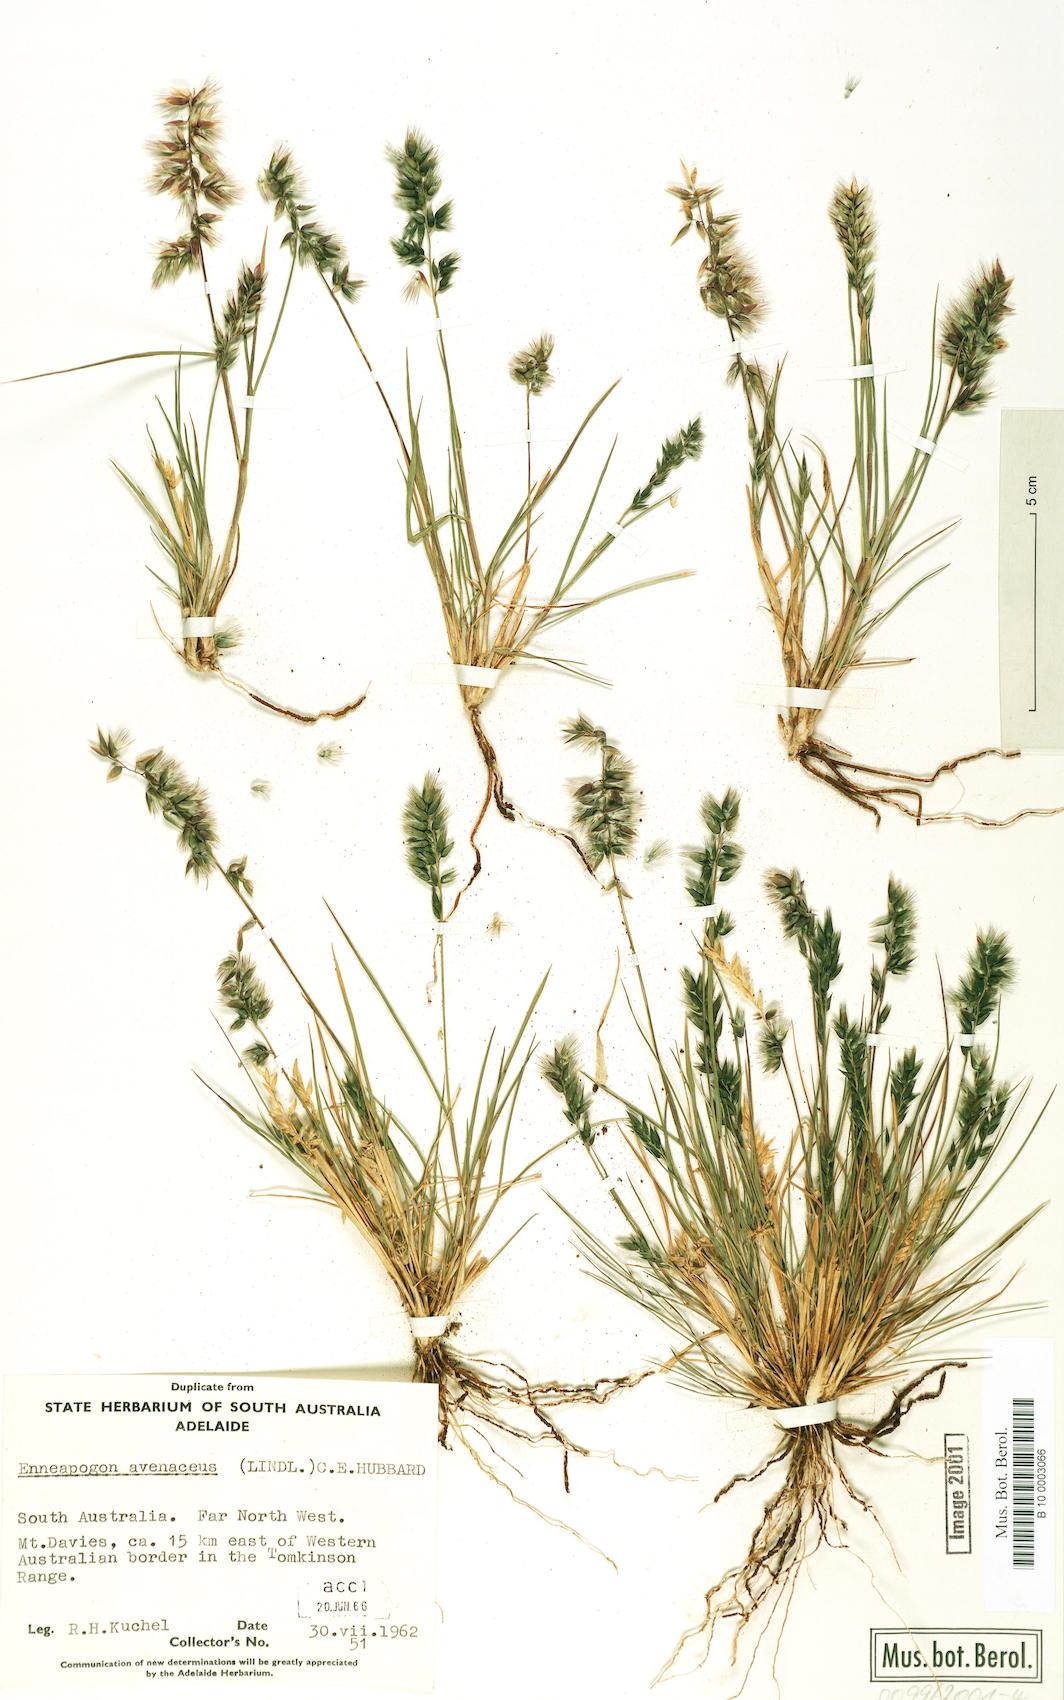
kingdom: Plantae
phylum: Tracheophyta
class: Liliopsida
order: Poales
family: Poaceae
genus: Enneapogon
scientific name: Enneapogon avenaceus
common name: Hairy oat grass
